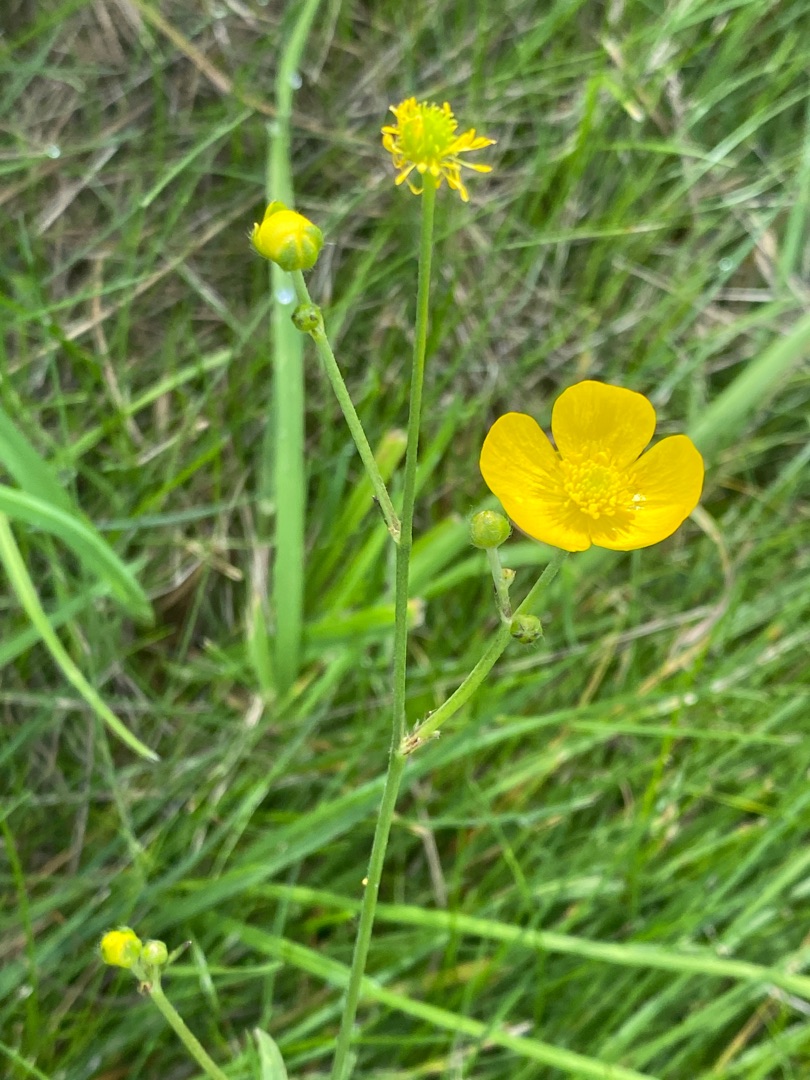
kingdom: Plantae
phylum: Tracheophyta
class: Magnoliopsida
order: Ranunculales
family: Ranunculaceae
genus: Ranunculus
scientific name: Ranunculus acris
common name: Bidende ranunkel
